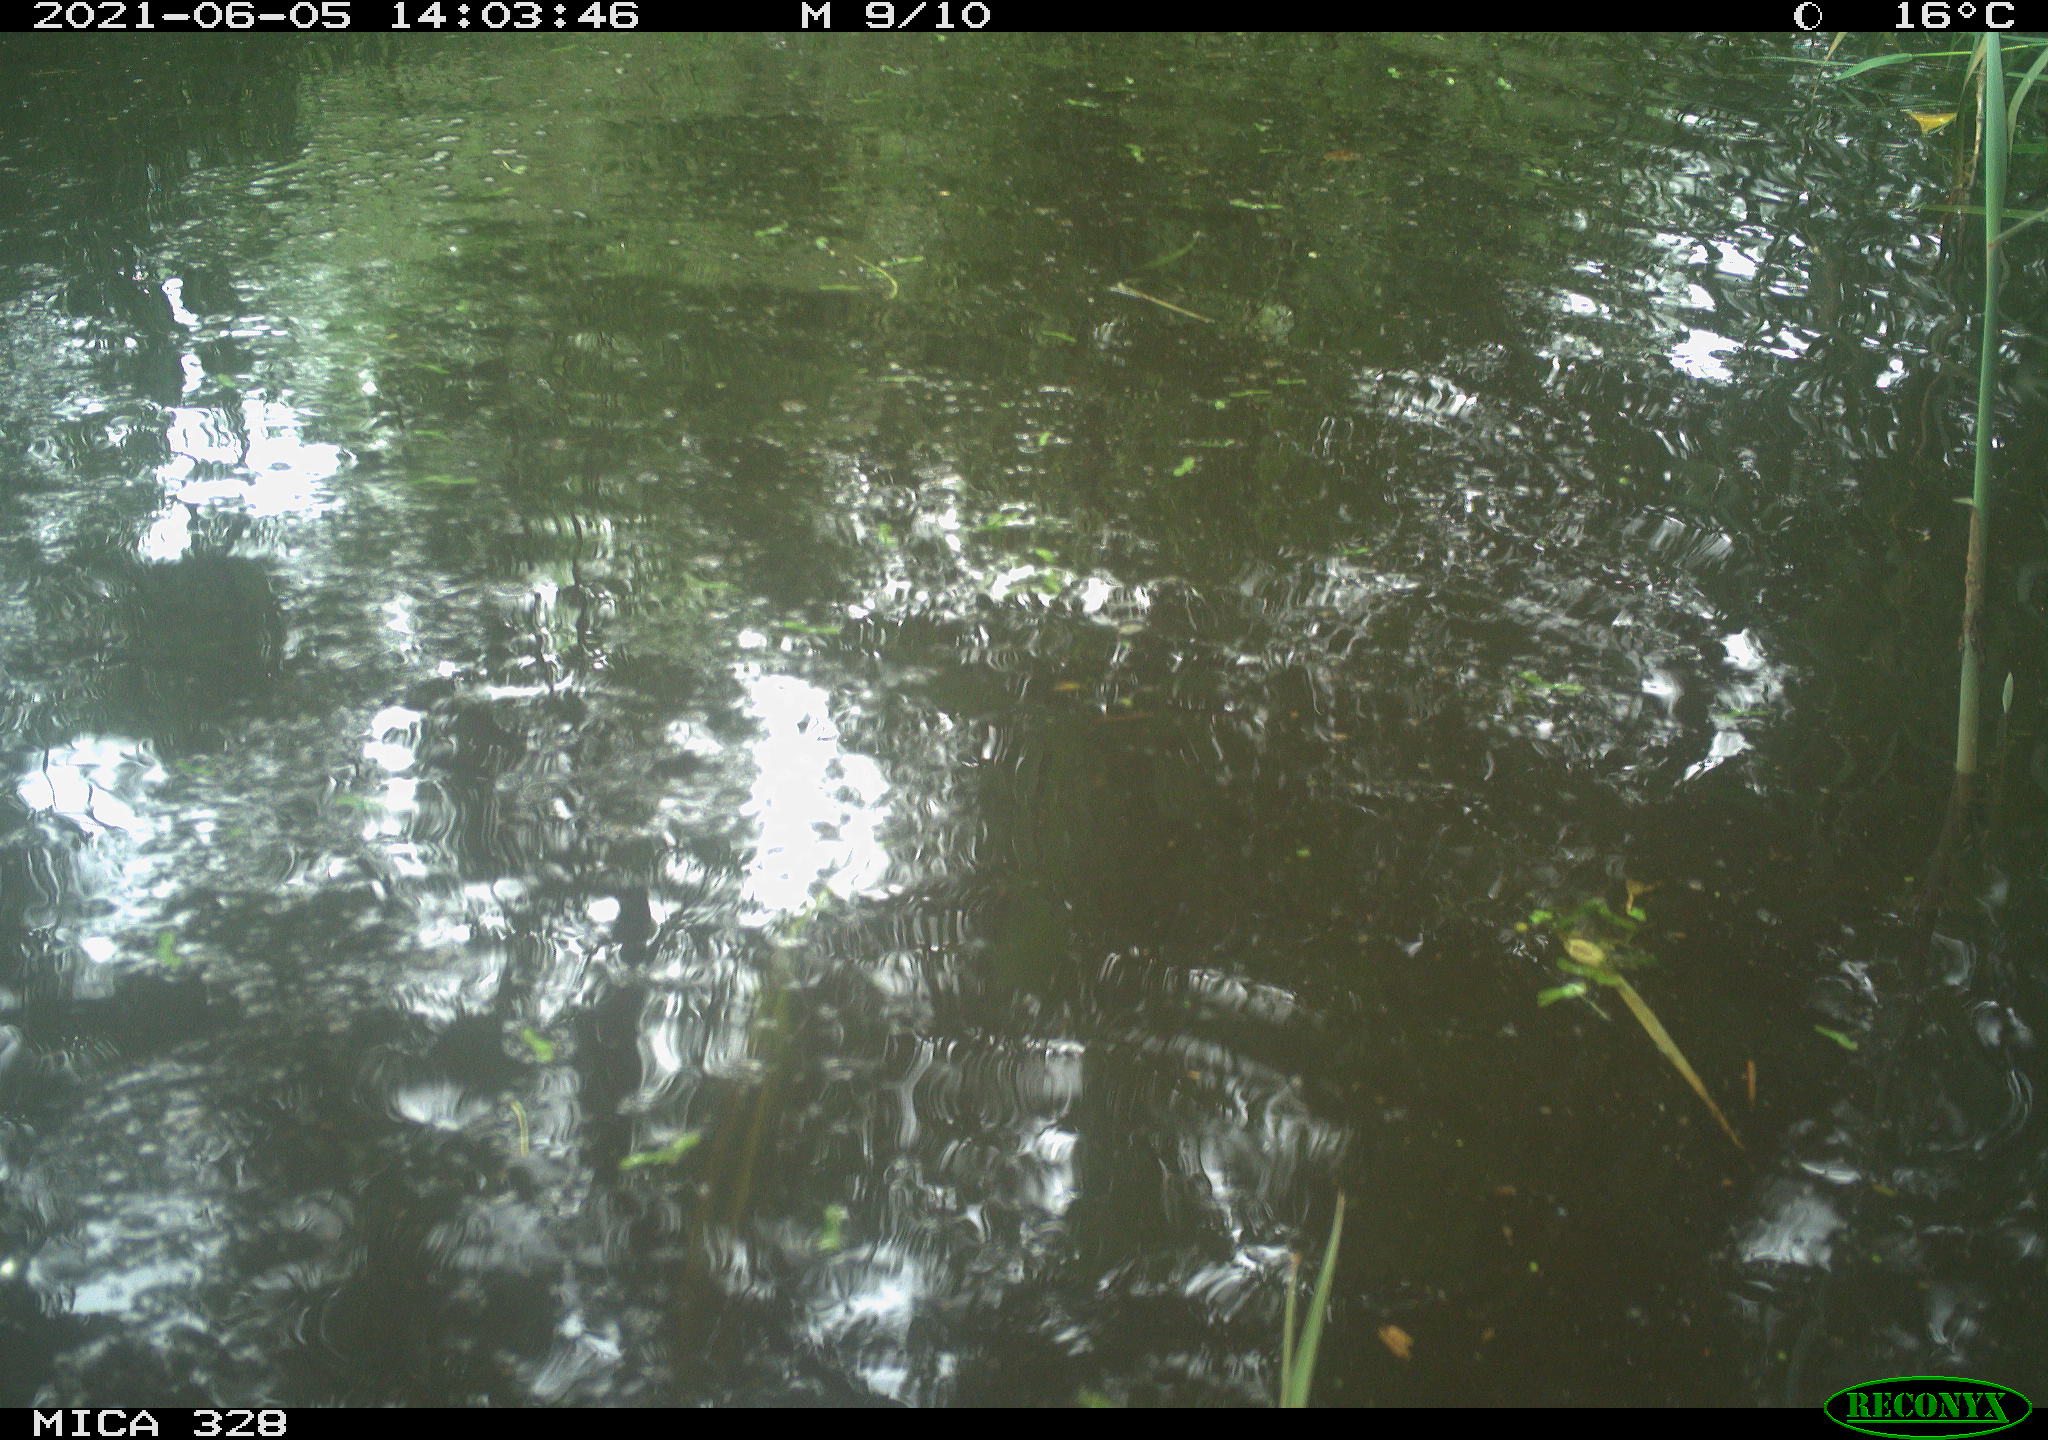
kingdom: Animalia
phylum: Chordata
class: Mammalia
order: Rodentia
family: Cricetidae
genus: Ondatra
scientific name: Ondatra zibethicus
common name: Muskrat
